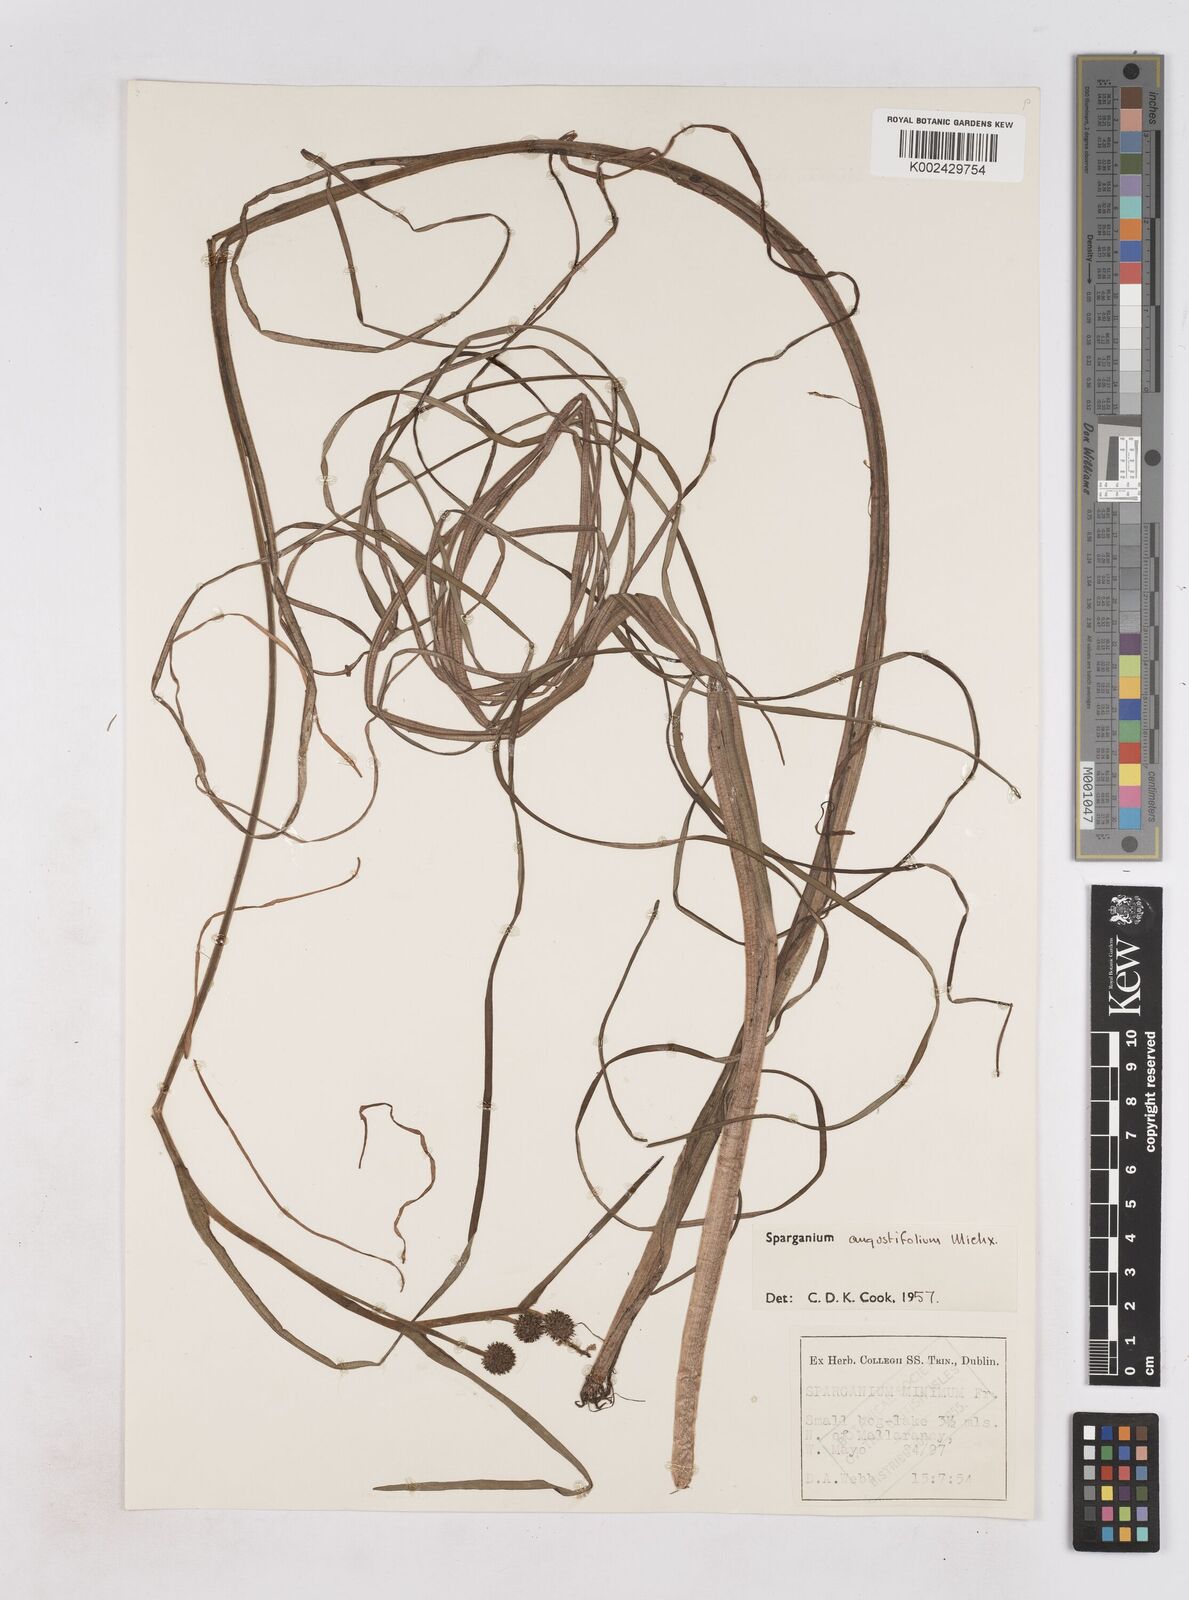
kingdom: Plantae
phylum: Tracheophyta
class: Liliopsida
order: Poales
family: Typhaceae
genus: Sparganium
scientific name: Sparganium angustifolium
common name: Floating bur-reed
